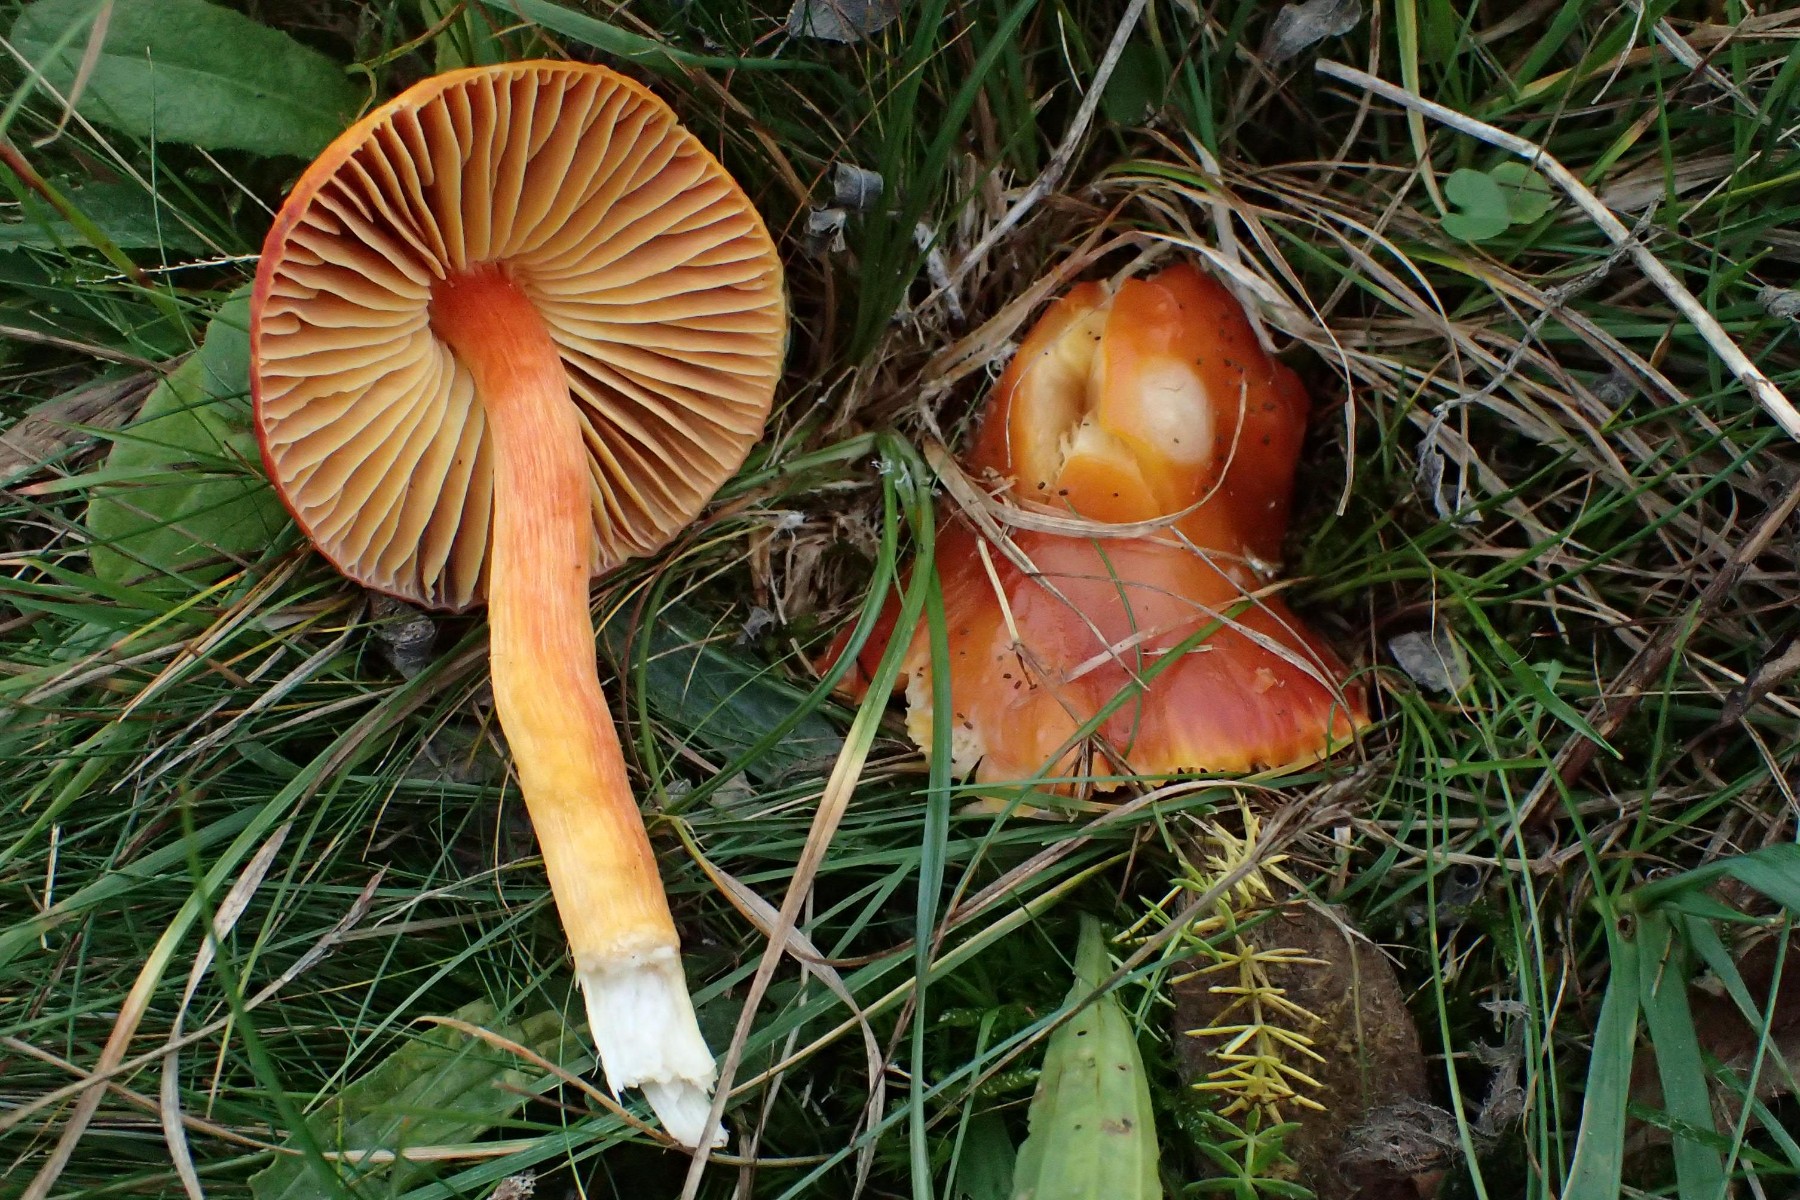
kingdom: Fungi
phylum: Basidiomycota
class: Agaricomycetes
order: Agaricales
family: Hygrophoraceae
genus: Hygrocybe
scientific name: Hygrocybe punicea
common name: skarlagen-vokshat
